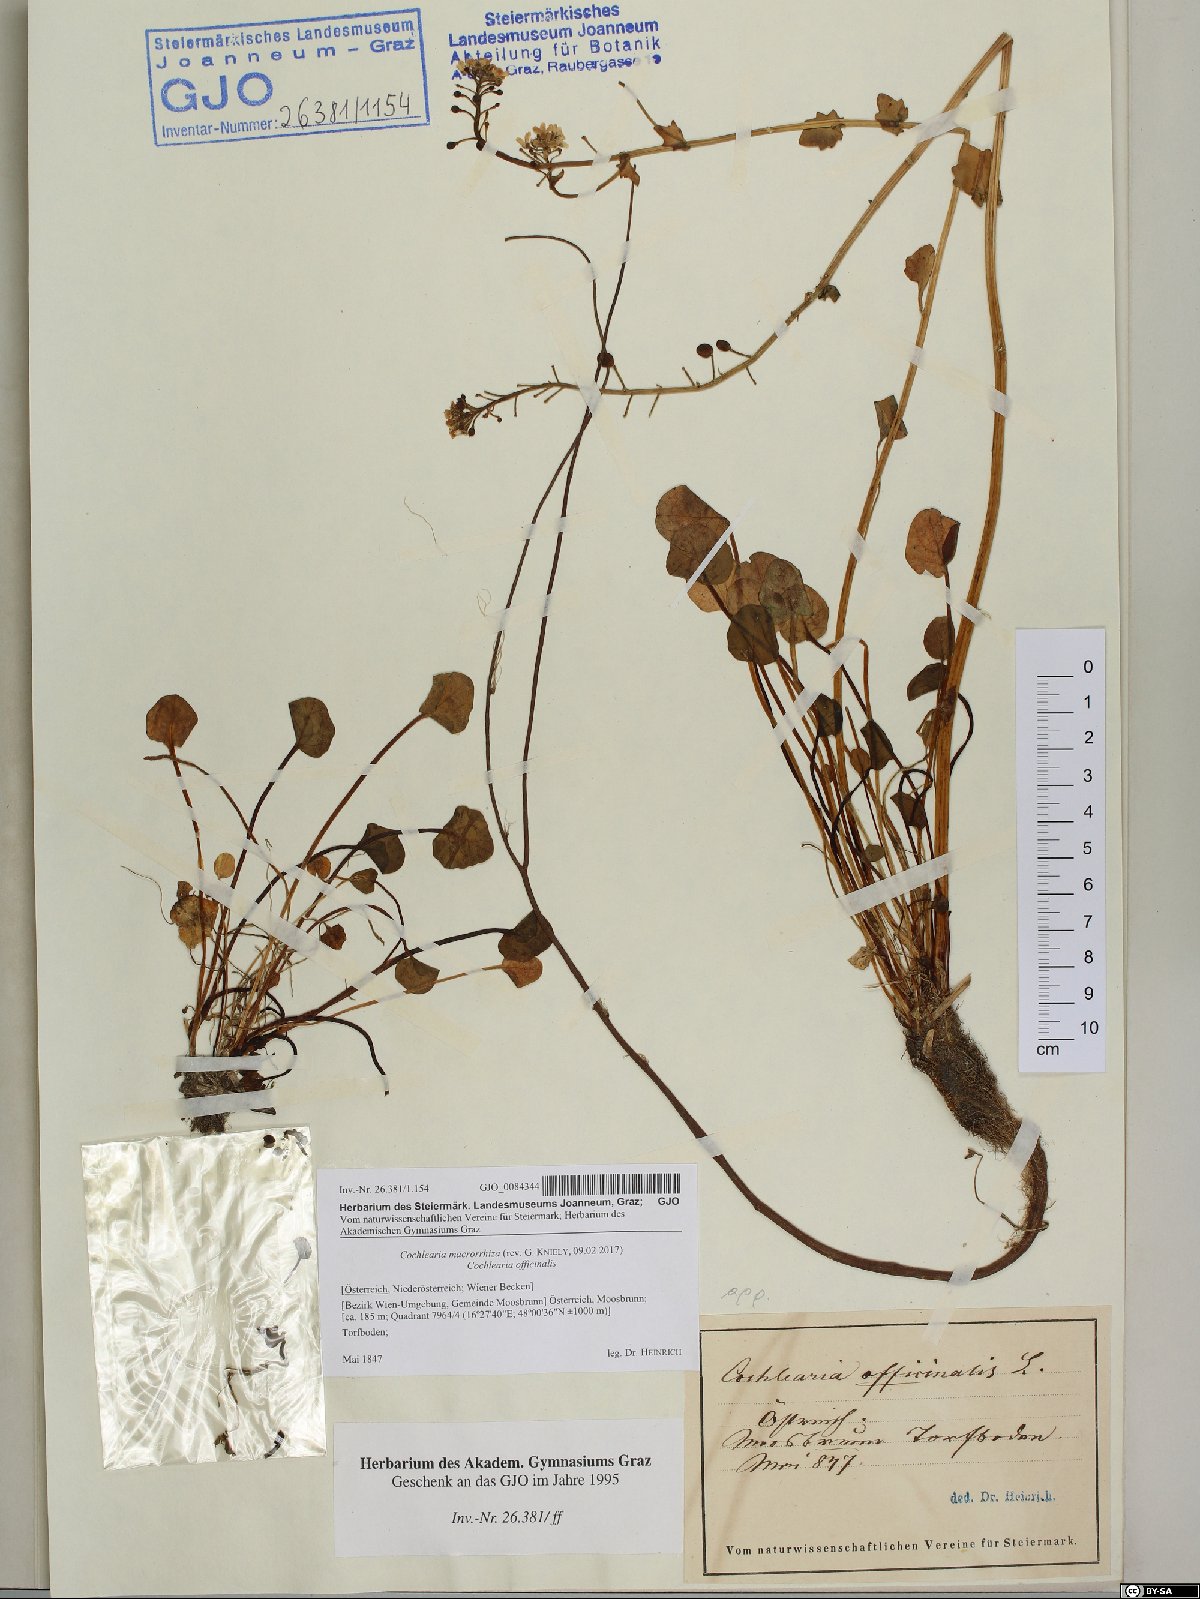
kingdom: Plantae
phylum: Tracheophyta
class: Magnoliopsida
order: Brassicales
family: Brassicaceae
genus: Cochlearia
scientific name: Cochlearia pyrenaica
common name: Upland scurvy-grass
